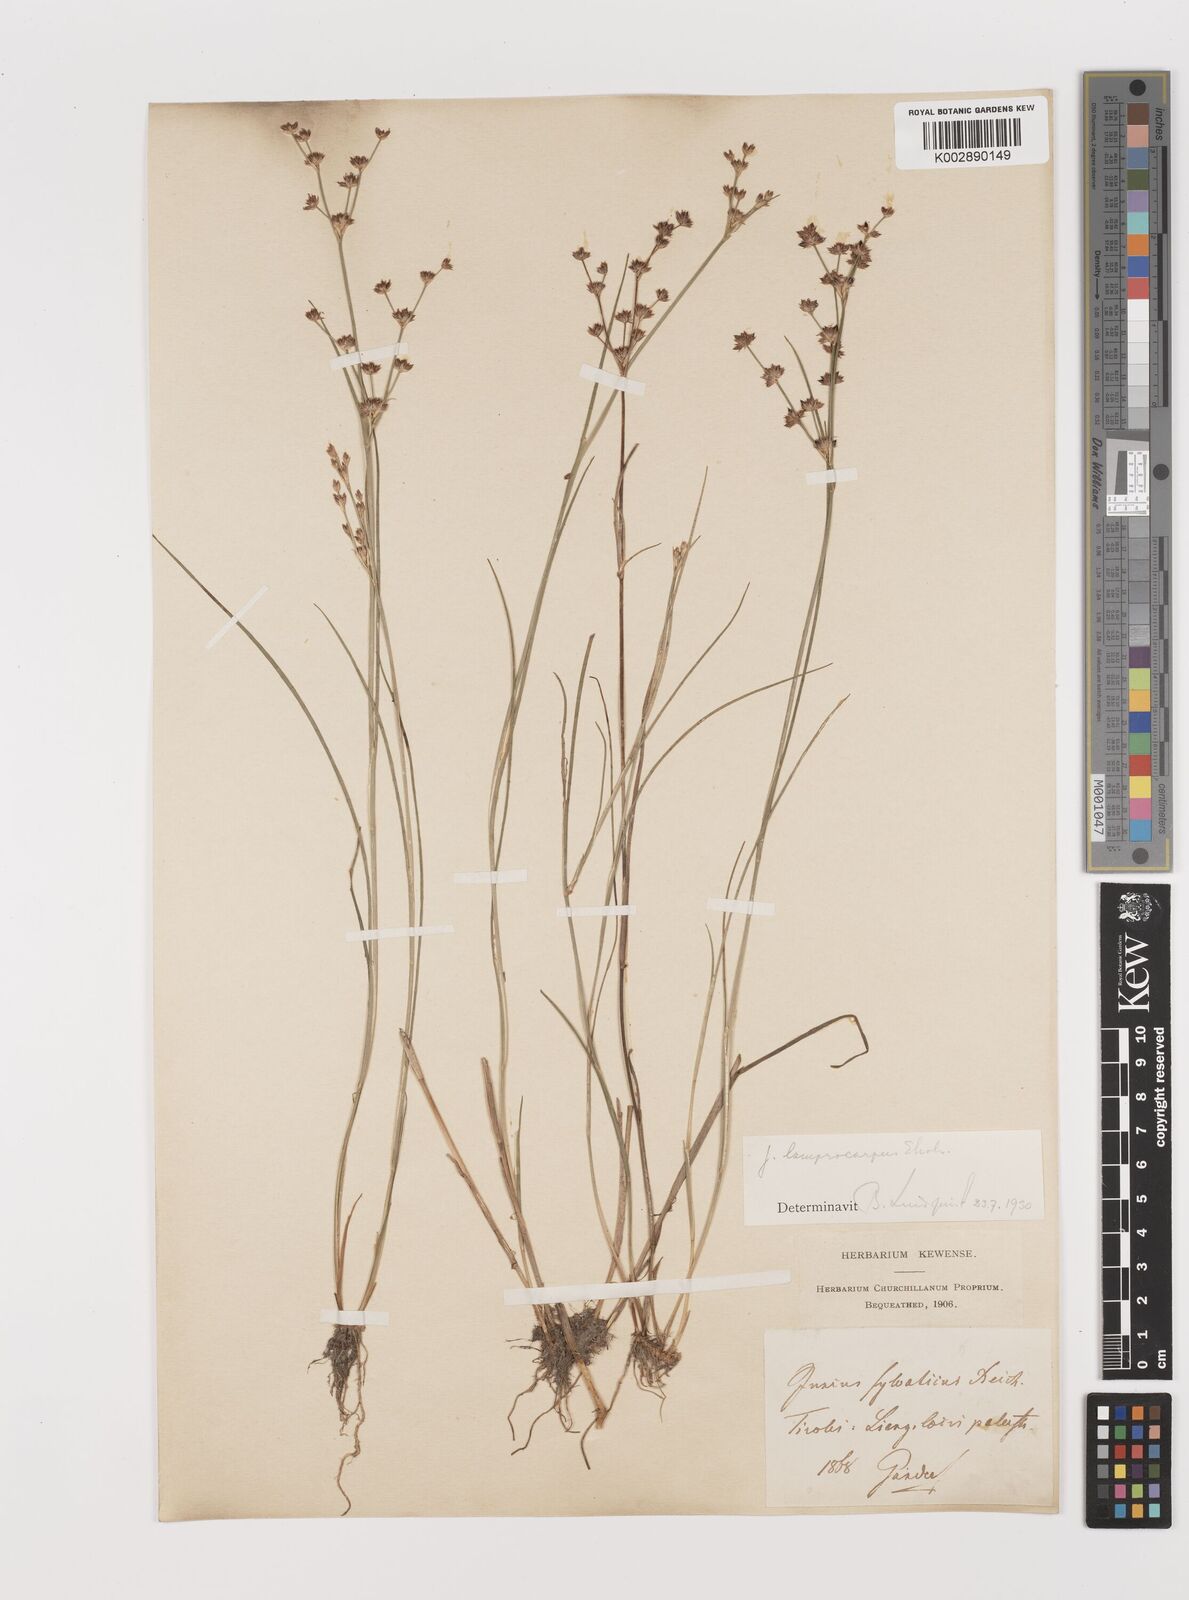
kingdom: Plantae
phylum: Tracheophyta
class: Liliopsida
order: Poales
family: Juncaceae
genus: Juncus
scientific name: Juncus articulatus
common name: Jointed rush
